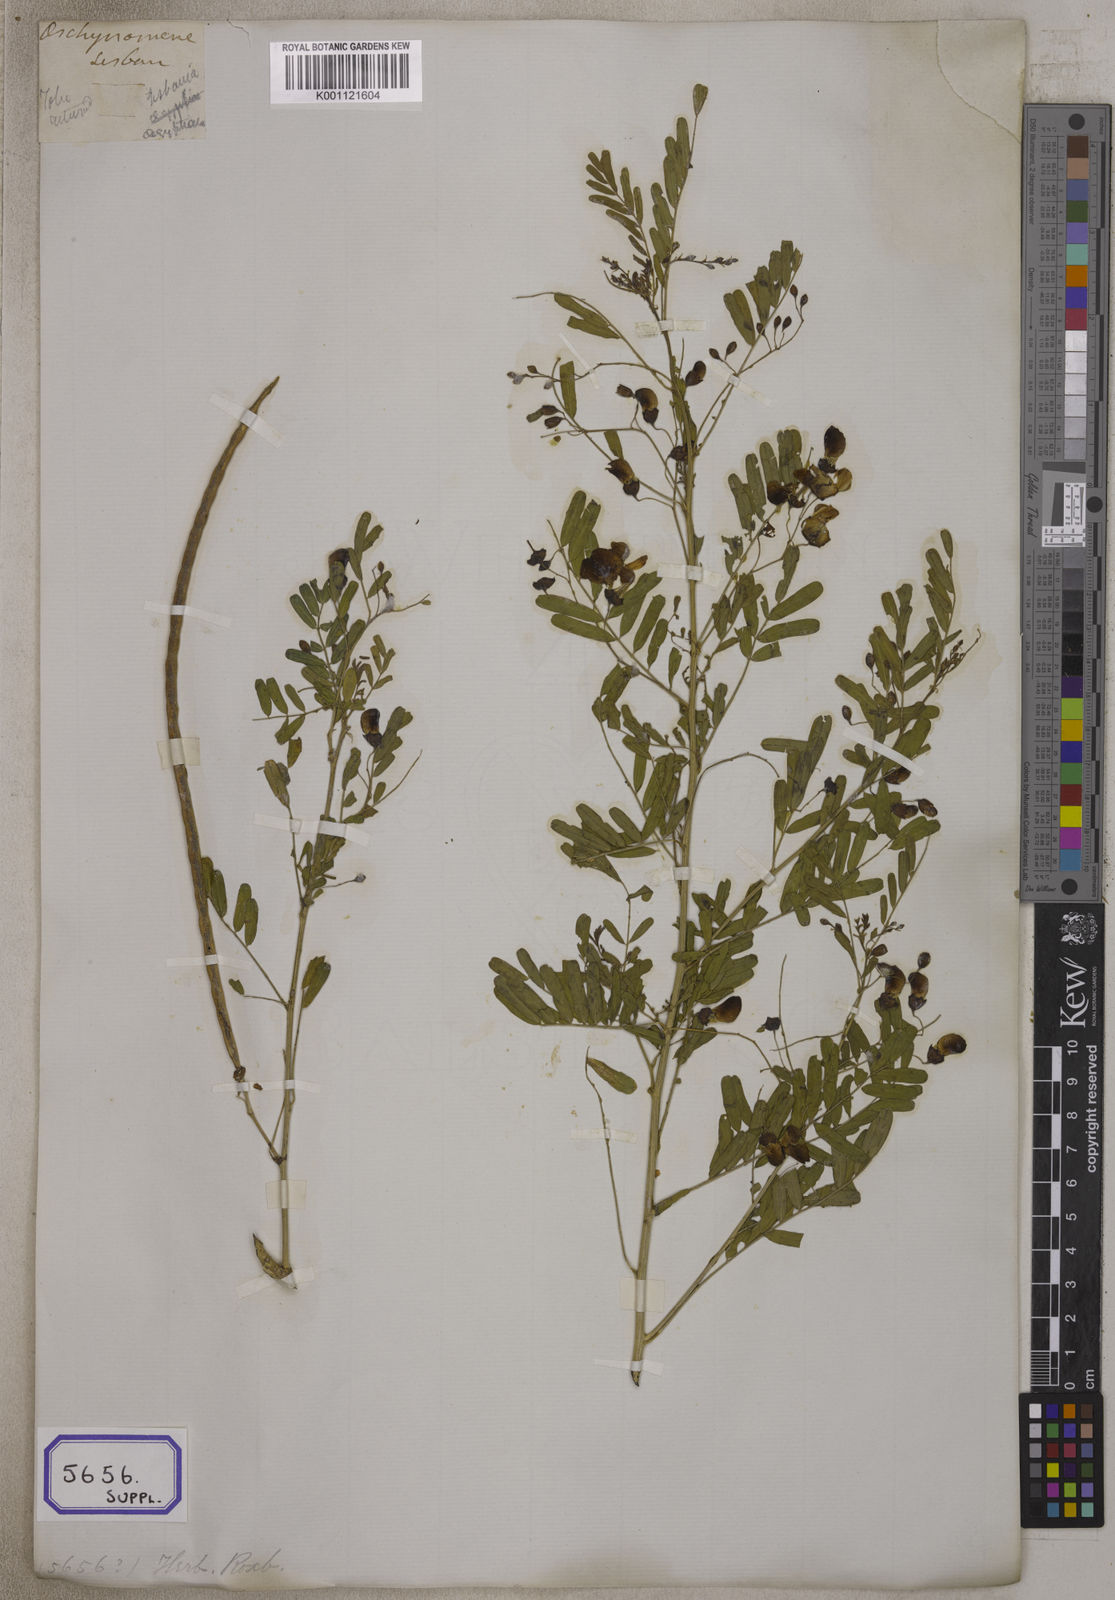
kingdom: Plantae
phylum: Tracheophyta
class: Magnoliopsida
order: Fabales
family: Fabaceae
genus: Sesbania
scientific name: Sesbania
